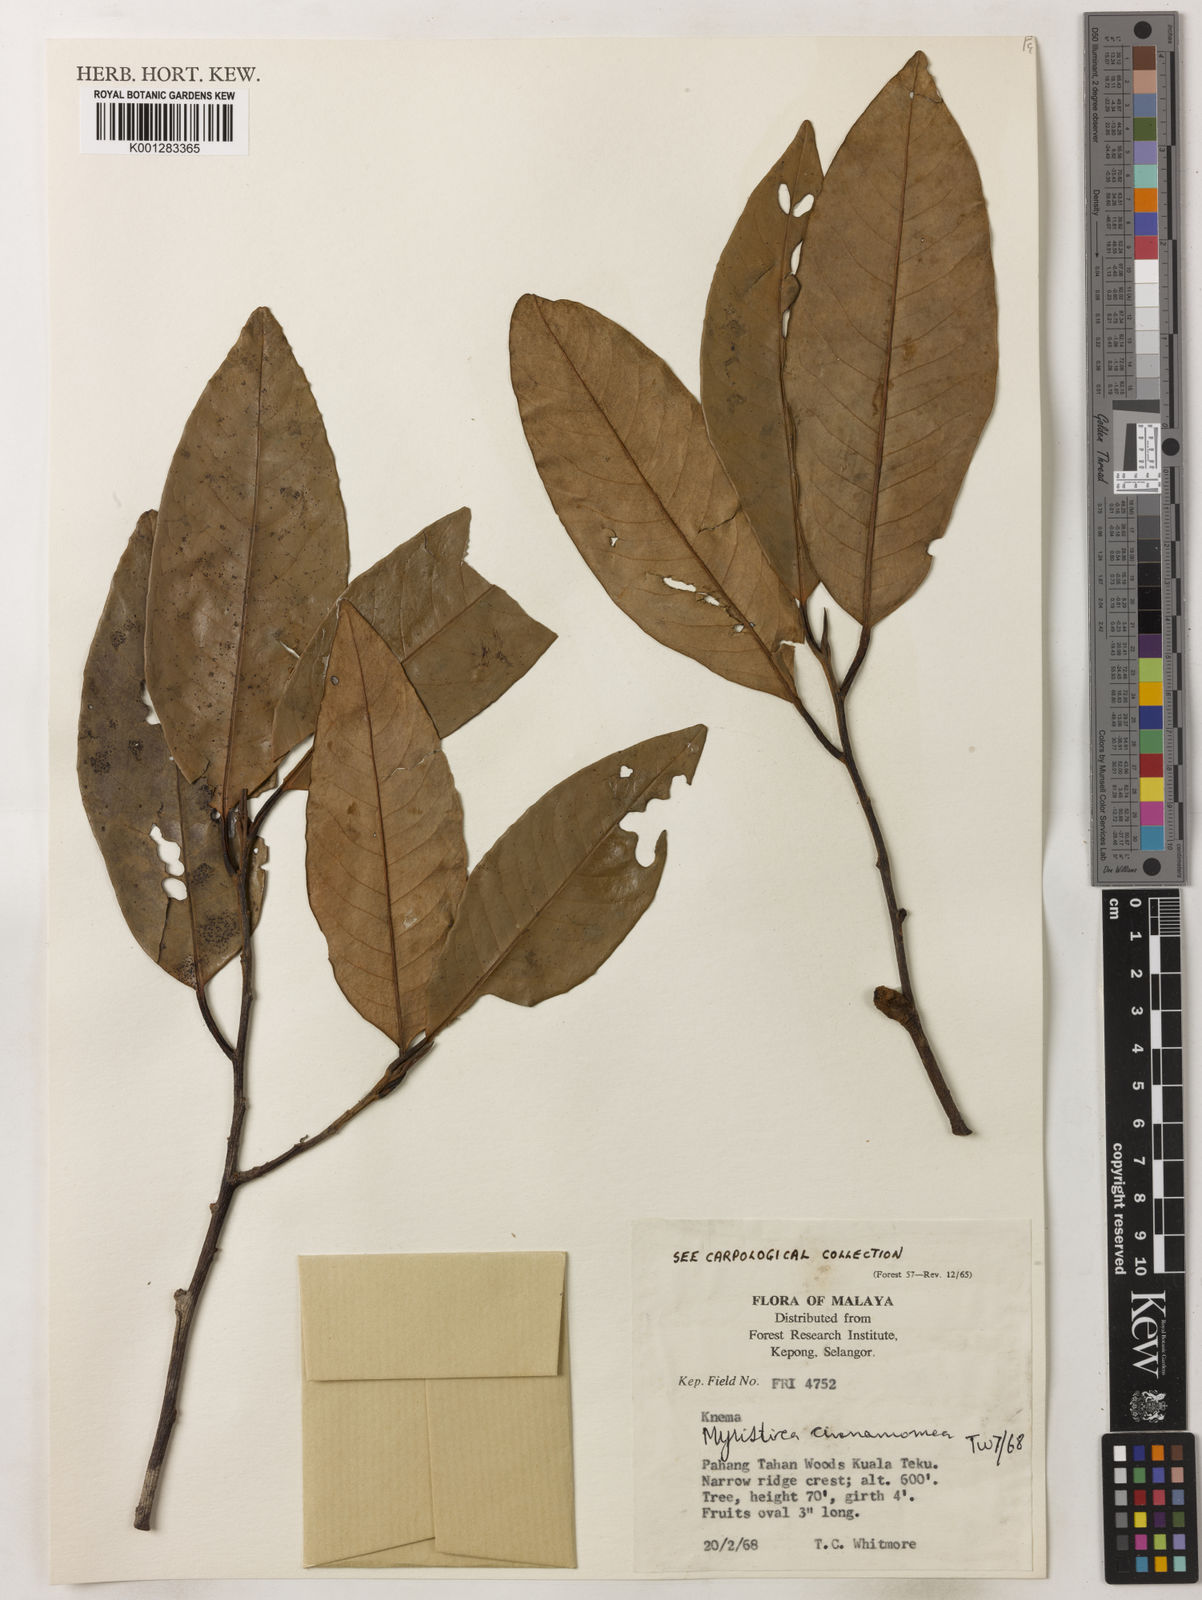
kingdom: Plantae
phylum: Tracheophyta
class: Magnoliopsida
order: Magnoliales
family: Myristicaceae
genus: Myristica
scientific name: Myristica cinnamomea
